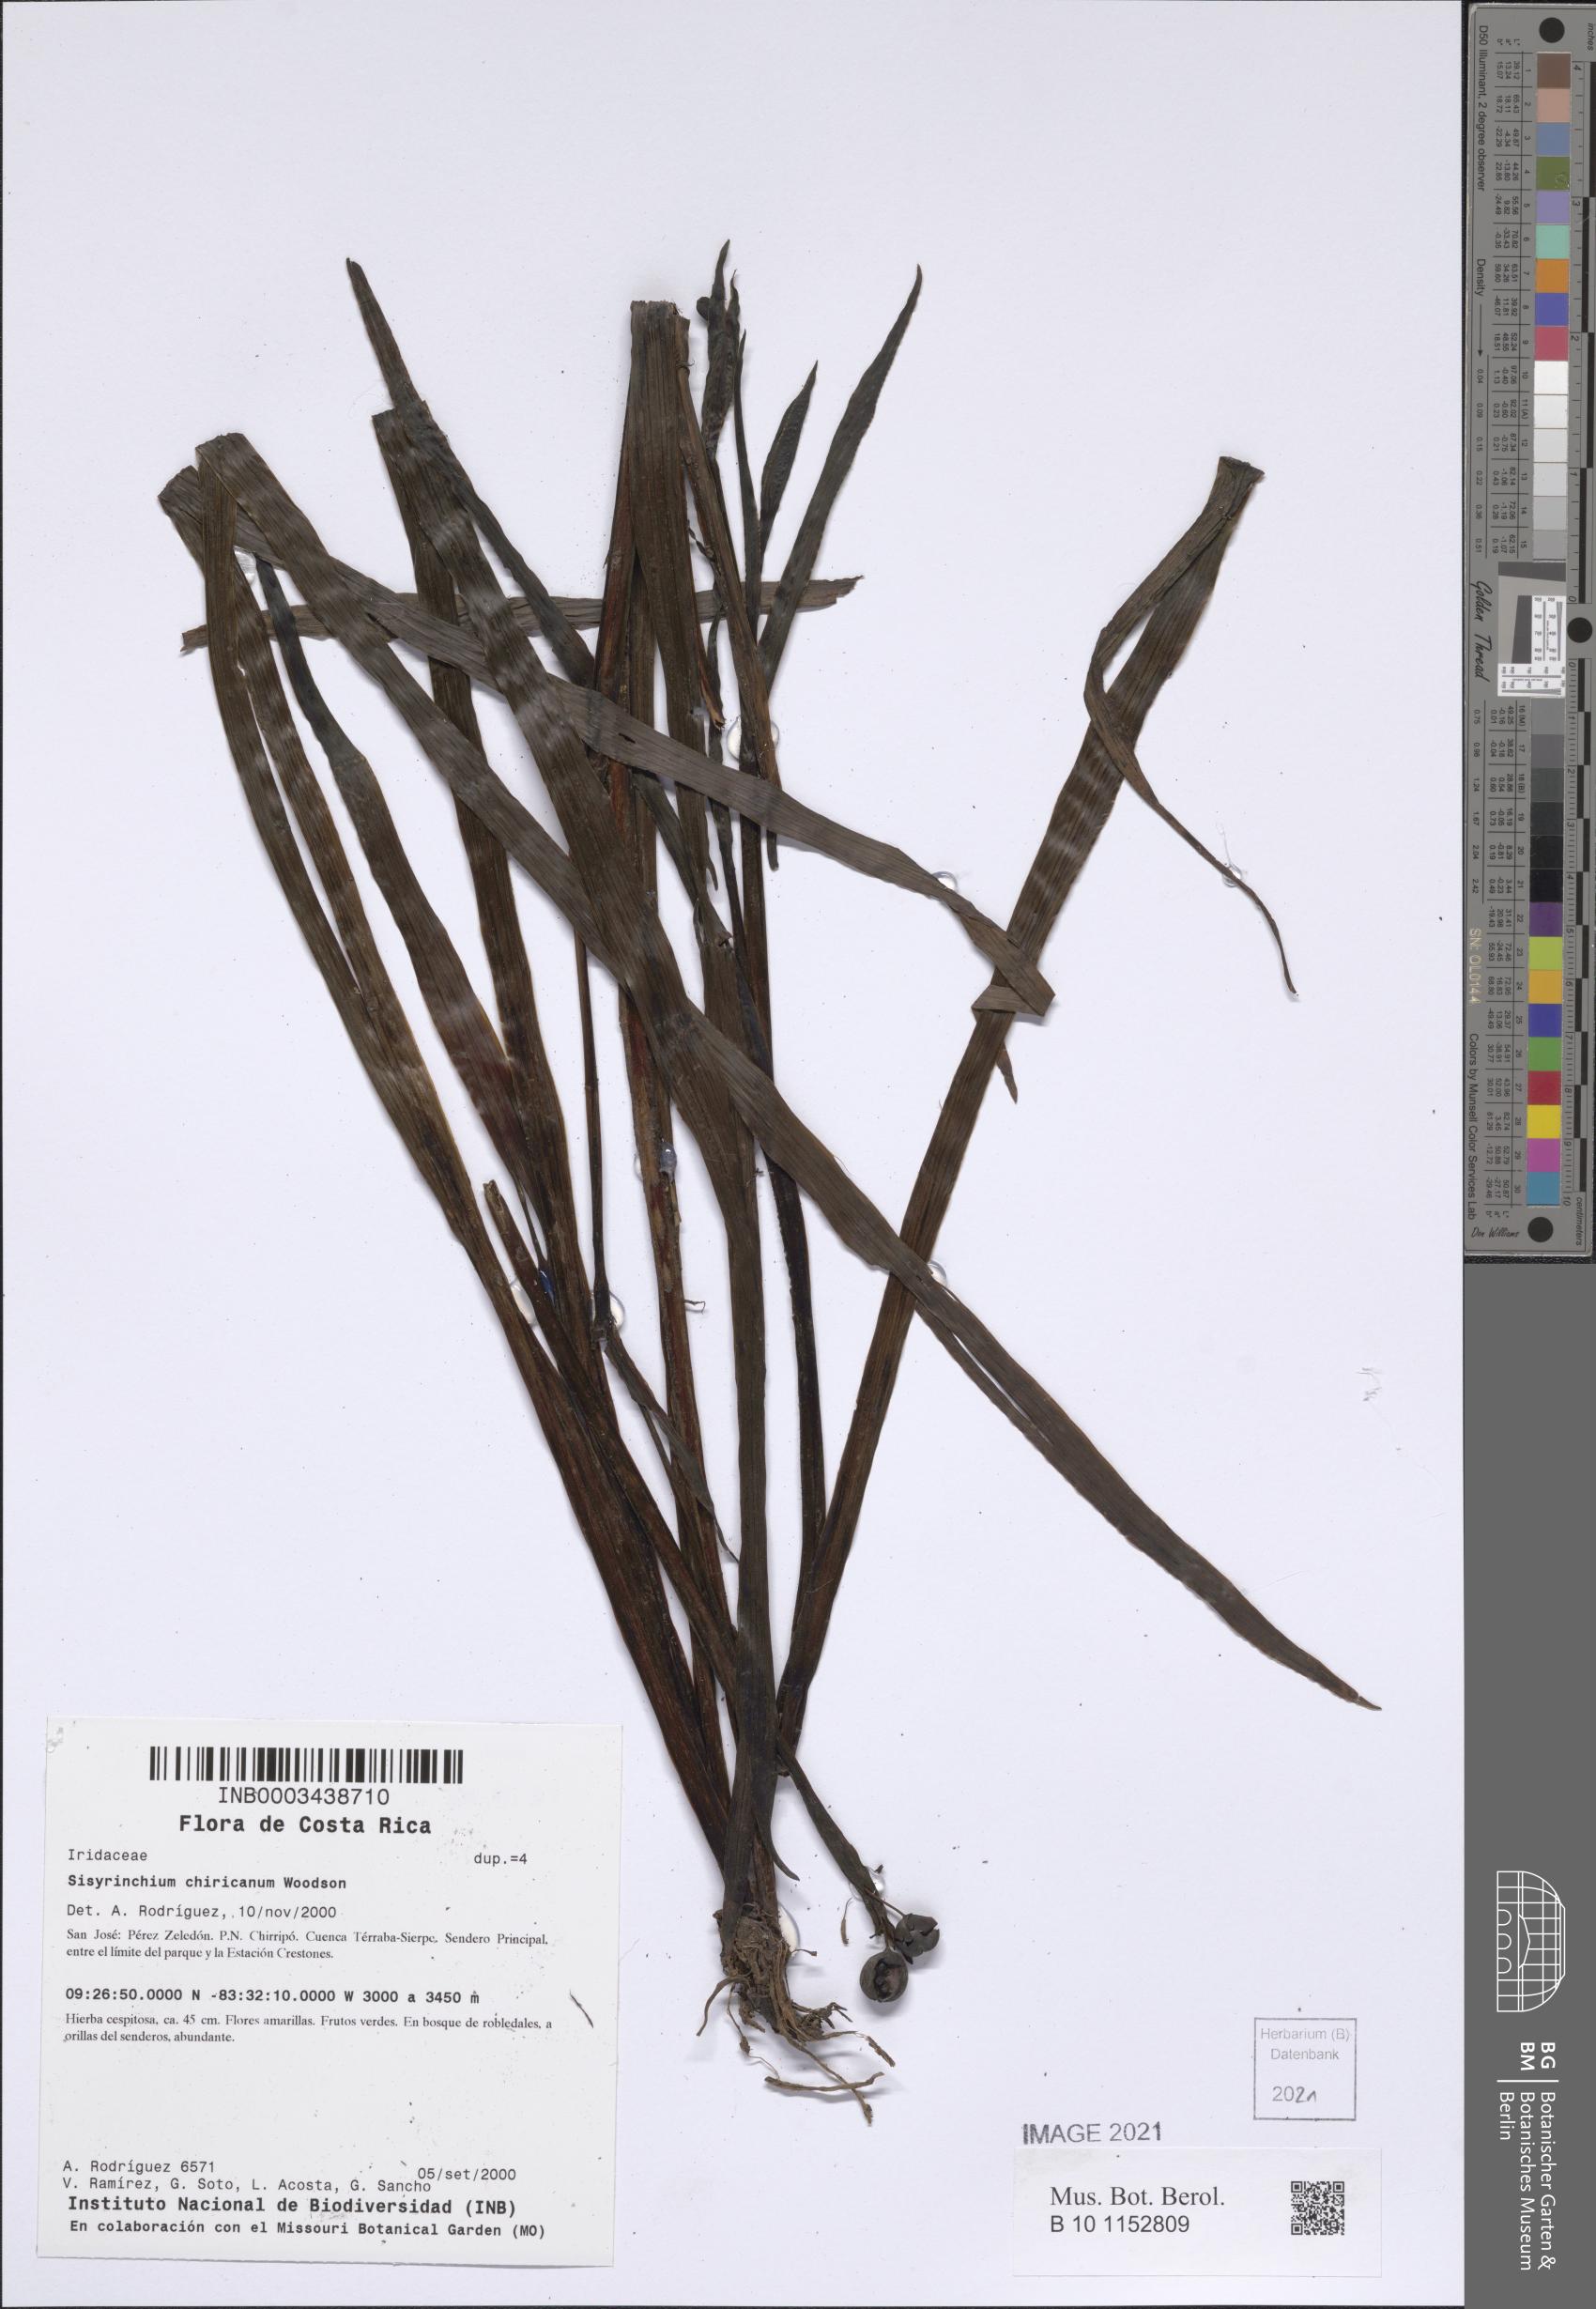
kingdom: Plantae
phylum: Tracheophyta
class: Liliopsida
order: Asparagales
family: Iridaceae
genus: Sisyrinchium
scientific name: Sisyrinchium chiricanum
